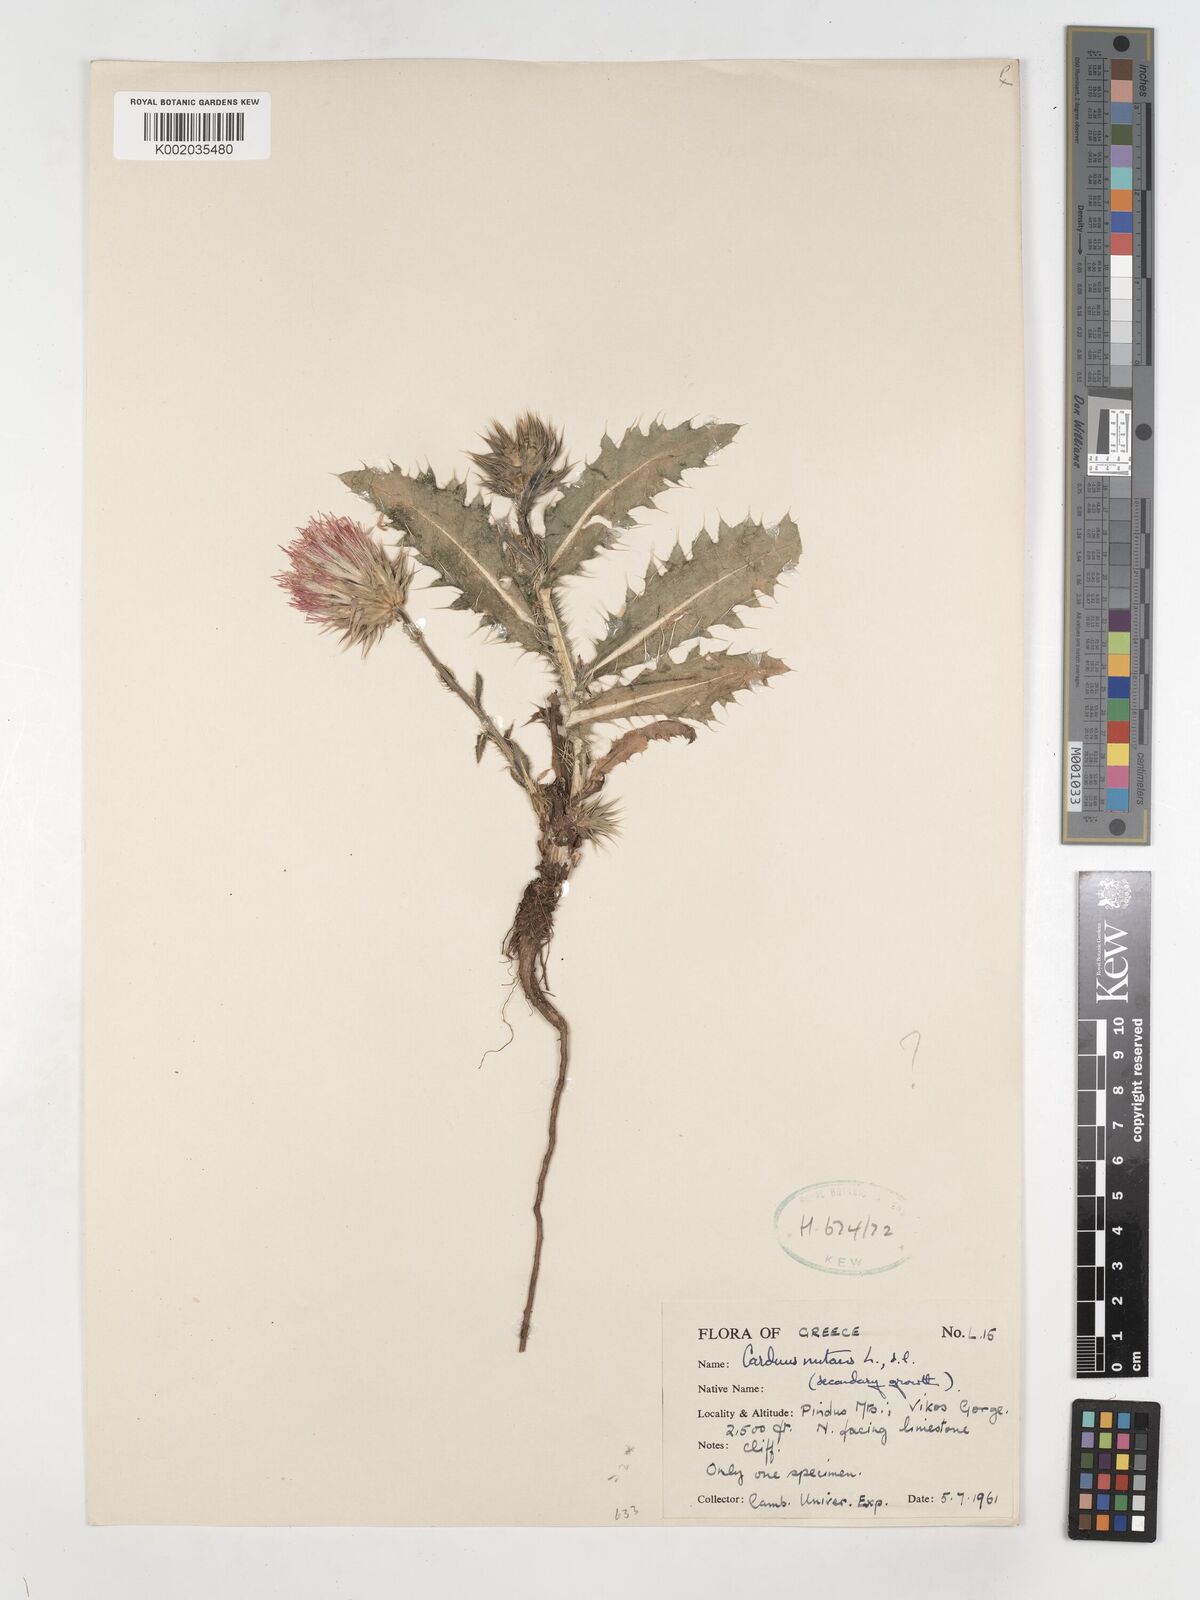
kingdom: Plantae
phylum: Tracheophyta
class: Magnoliopsida
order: Asterales
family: Asteraceae
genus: Carduus
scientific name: Carduus nutans
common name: Musk thistle
